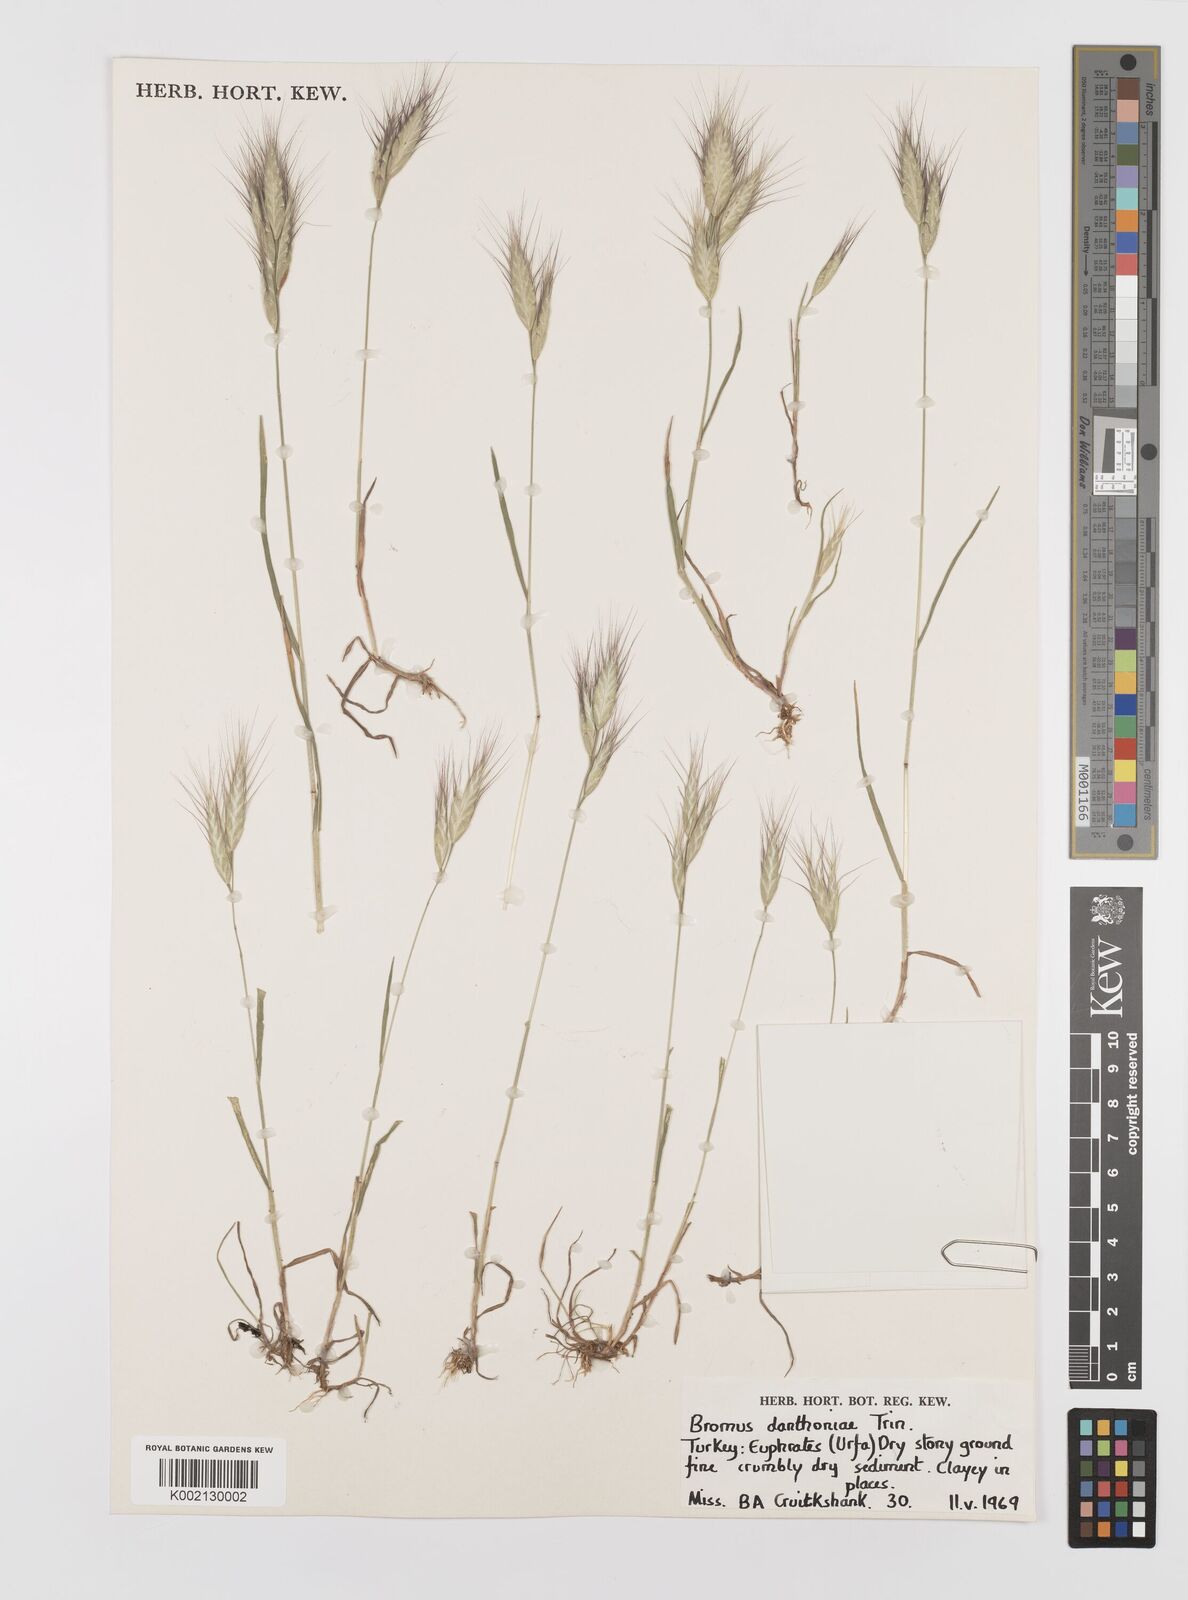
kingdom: Plantae
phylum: Tracheophyta
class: Liliopsida
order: Poales
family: Poaceae
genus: Bromus
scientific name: Bromus danthoniae
